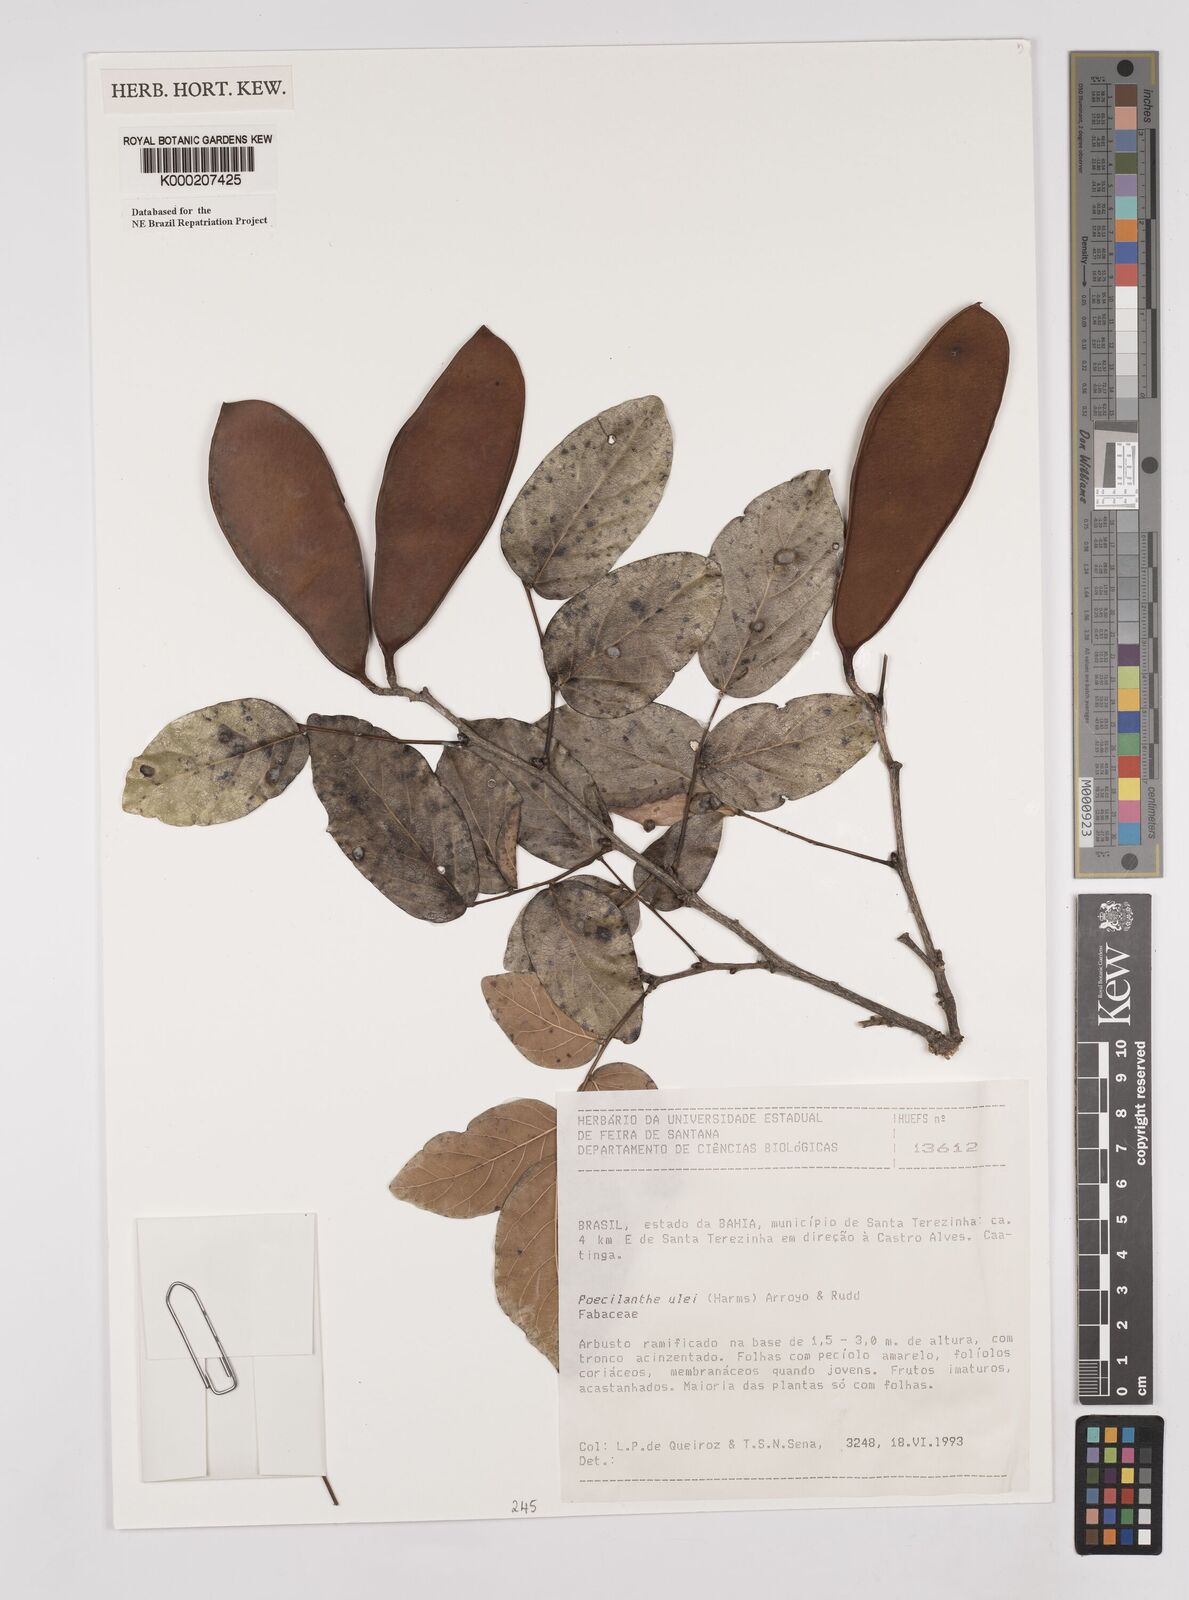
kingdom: Plantae
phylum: Tracheophyta
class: Magnoliopsida
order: Fabales
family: Fabaceae
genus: Poecilanthe
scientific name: Poecilanthe ulei
